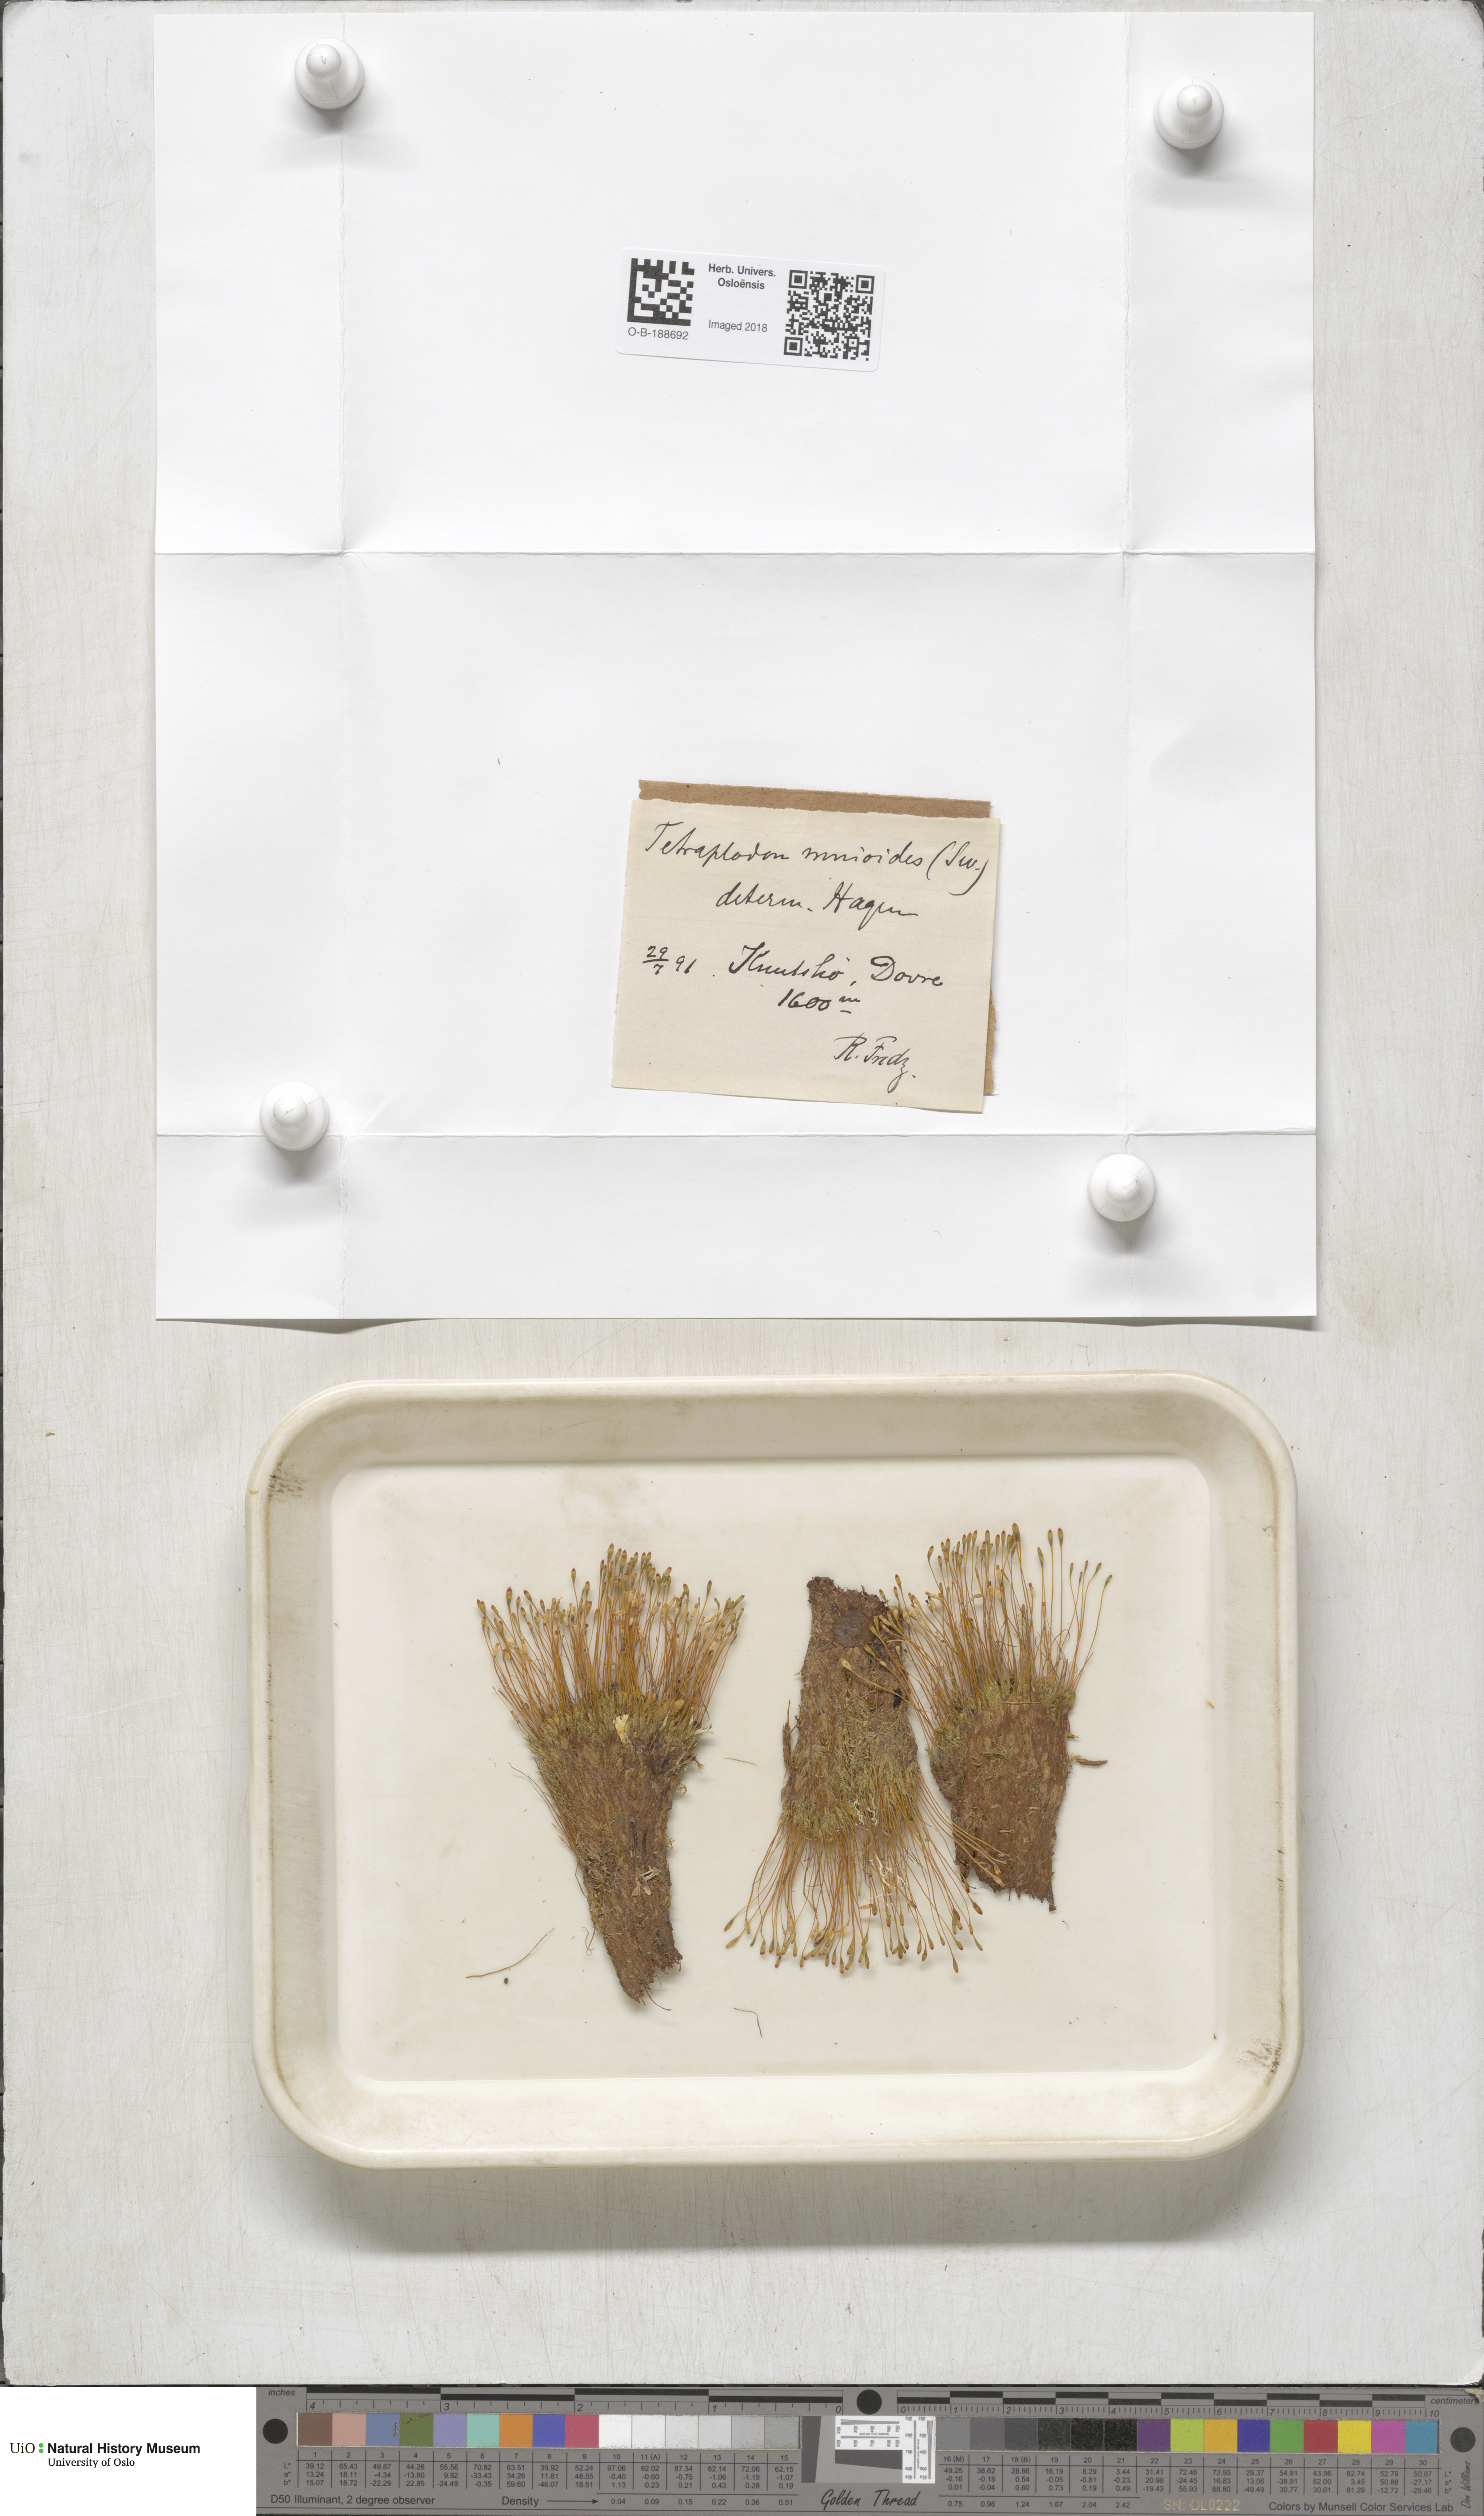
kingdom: Plantae
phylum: Bryophyta
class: Bryopsida
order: Splachnales
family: Splachnaceae
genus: Tetraplodon
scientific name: Tetraplodon mnioides
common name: Entire-leaved nitrogen moss
